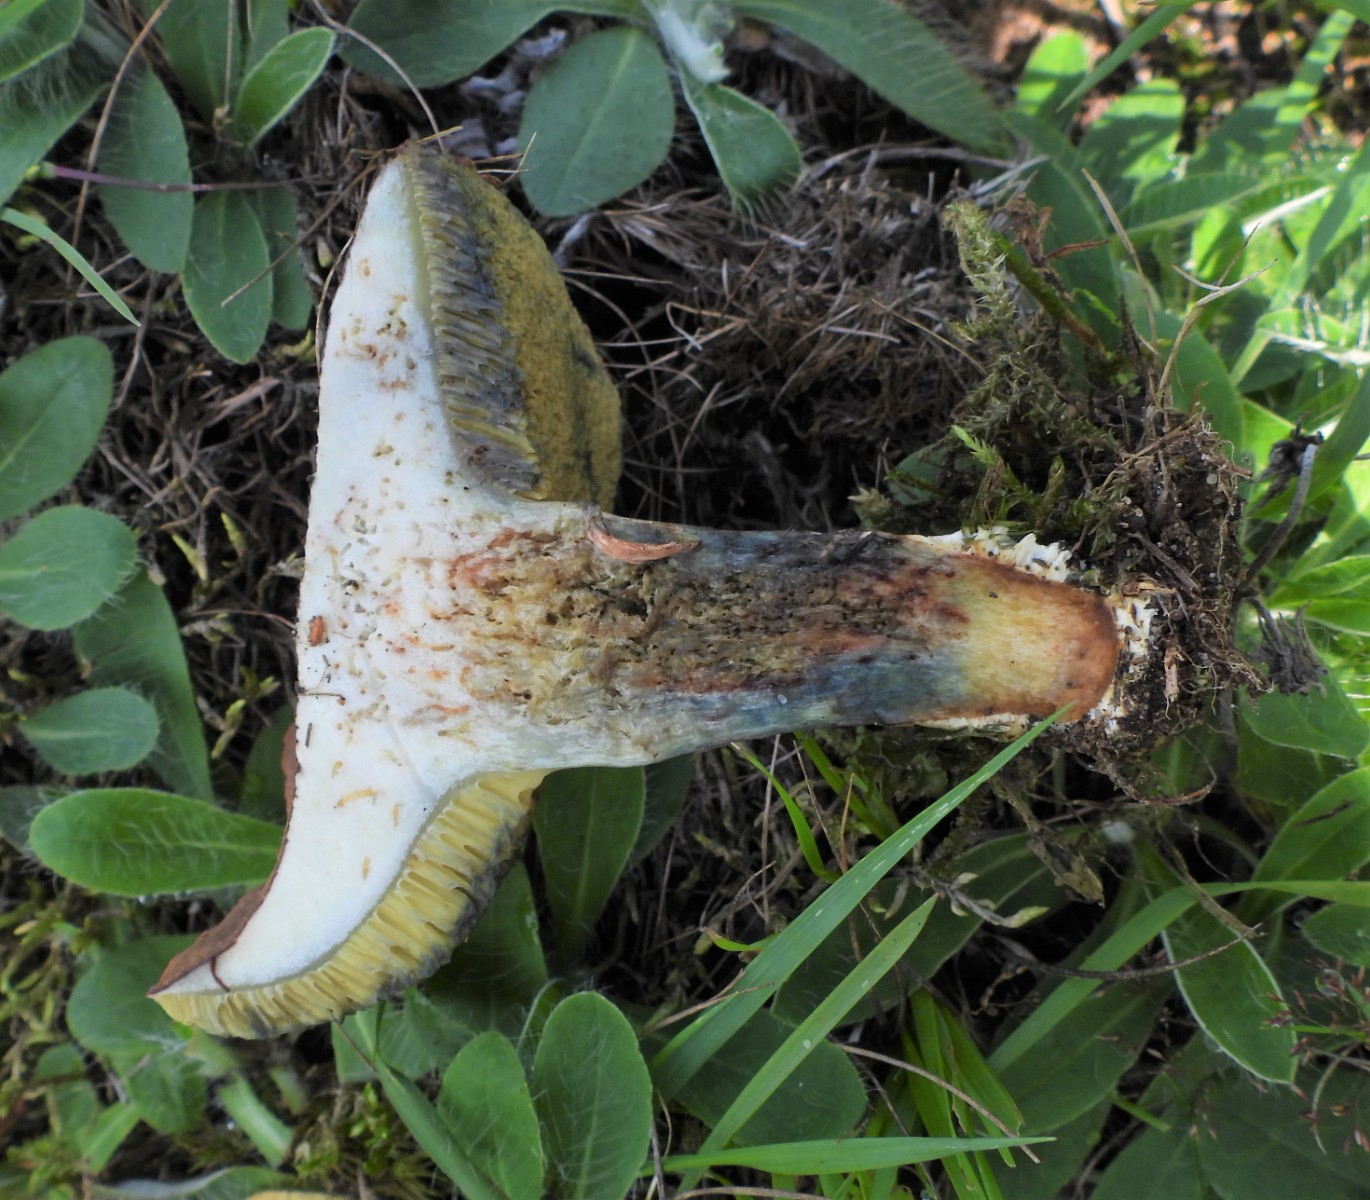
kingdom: Fungi
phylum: Basidiomycota
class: Agaricomycetes
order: Boletales
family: Boletaceae
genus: Xerocomellus
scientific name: Xerocomellus cisalpinus
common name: finsprukken rørhat
